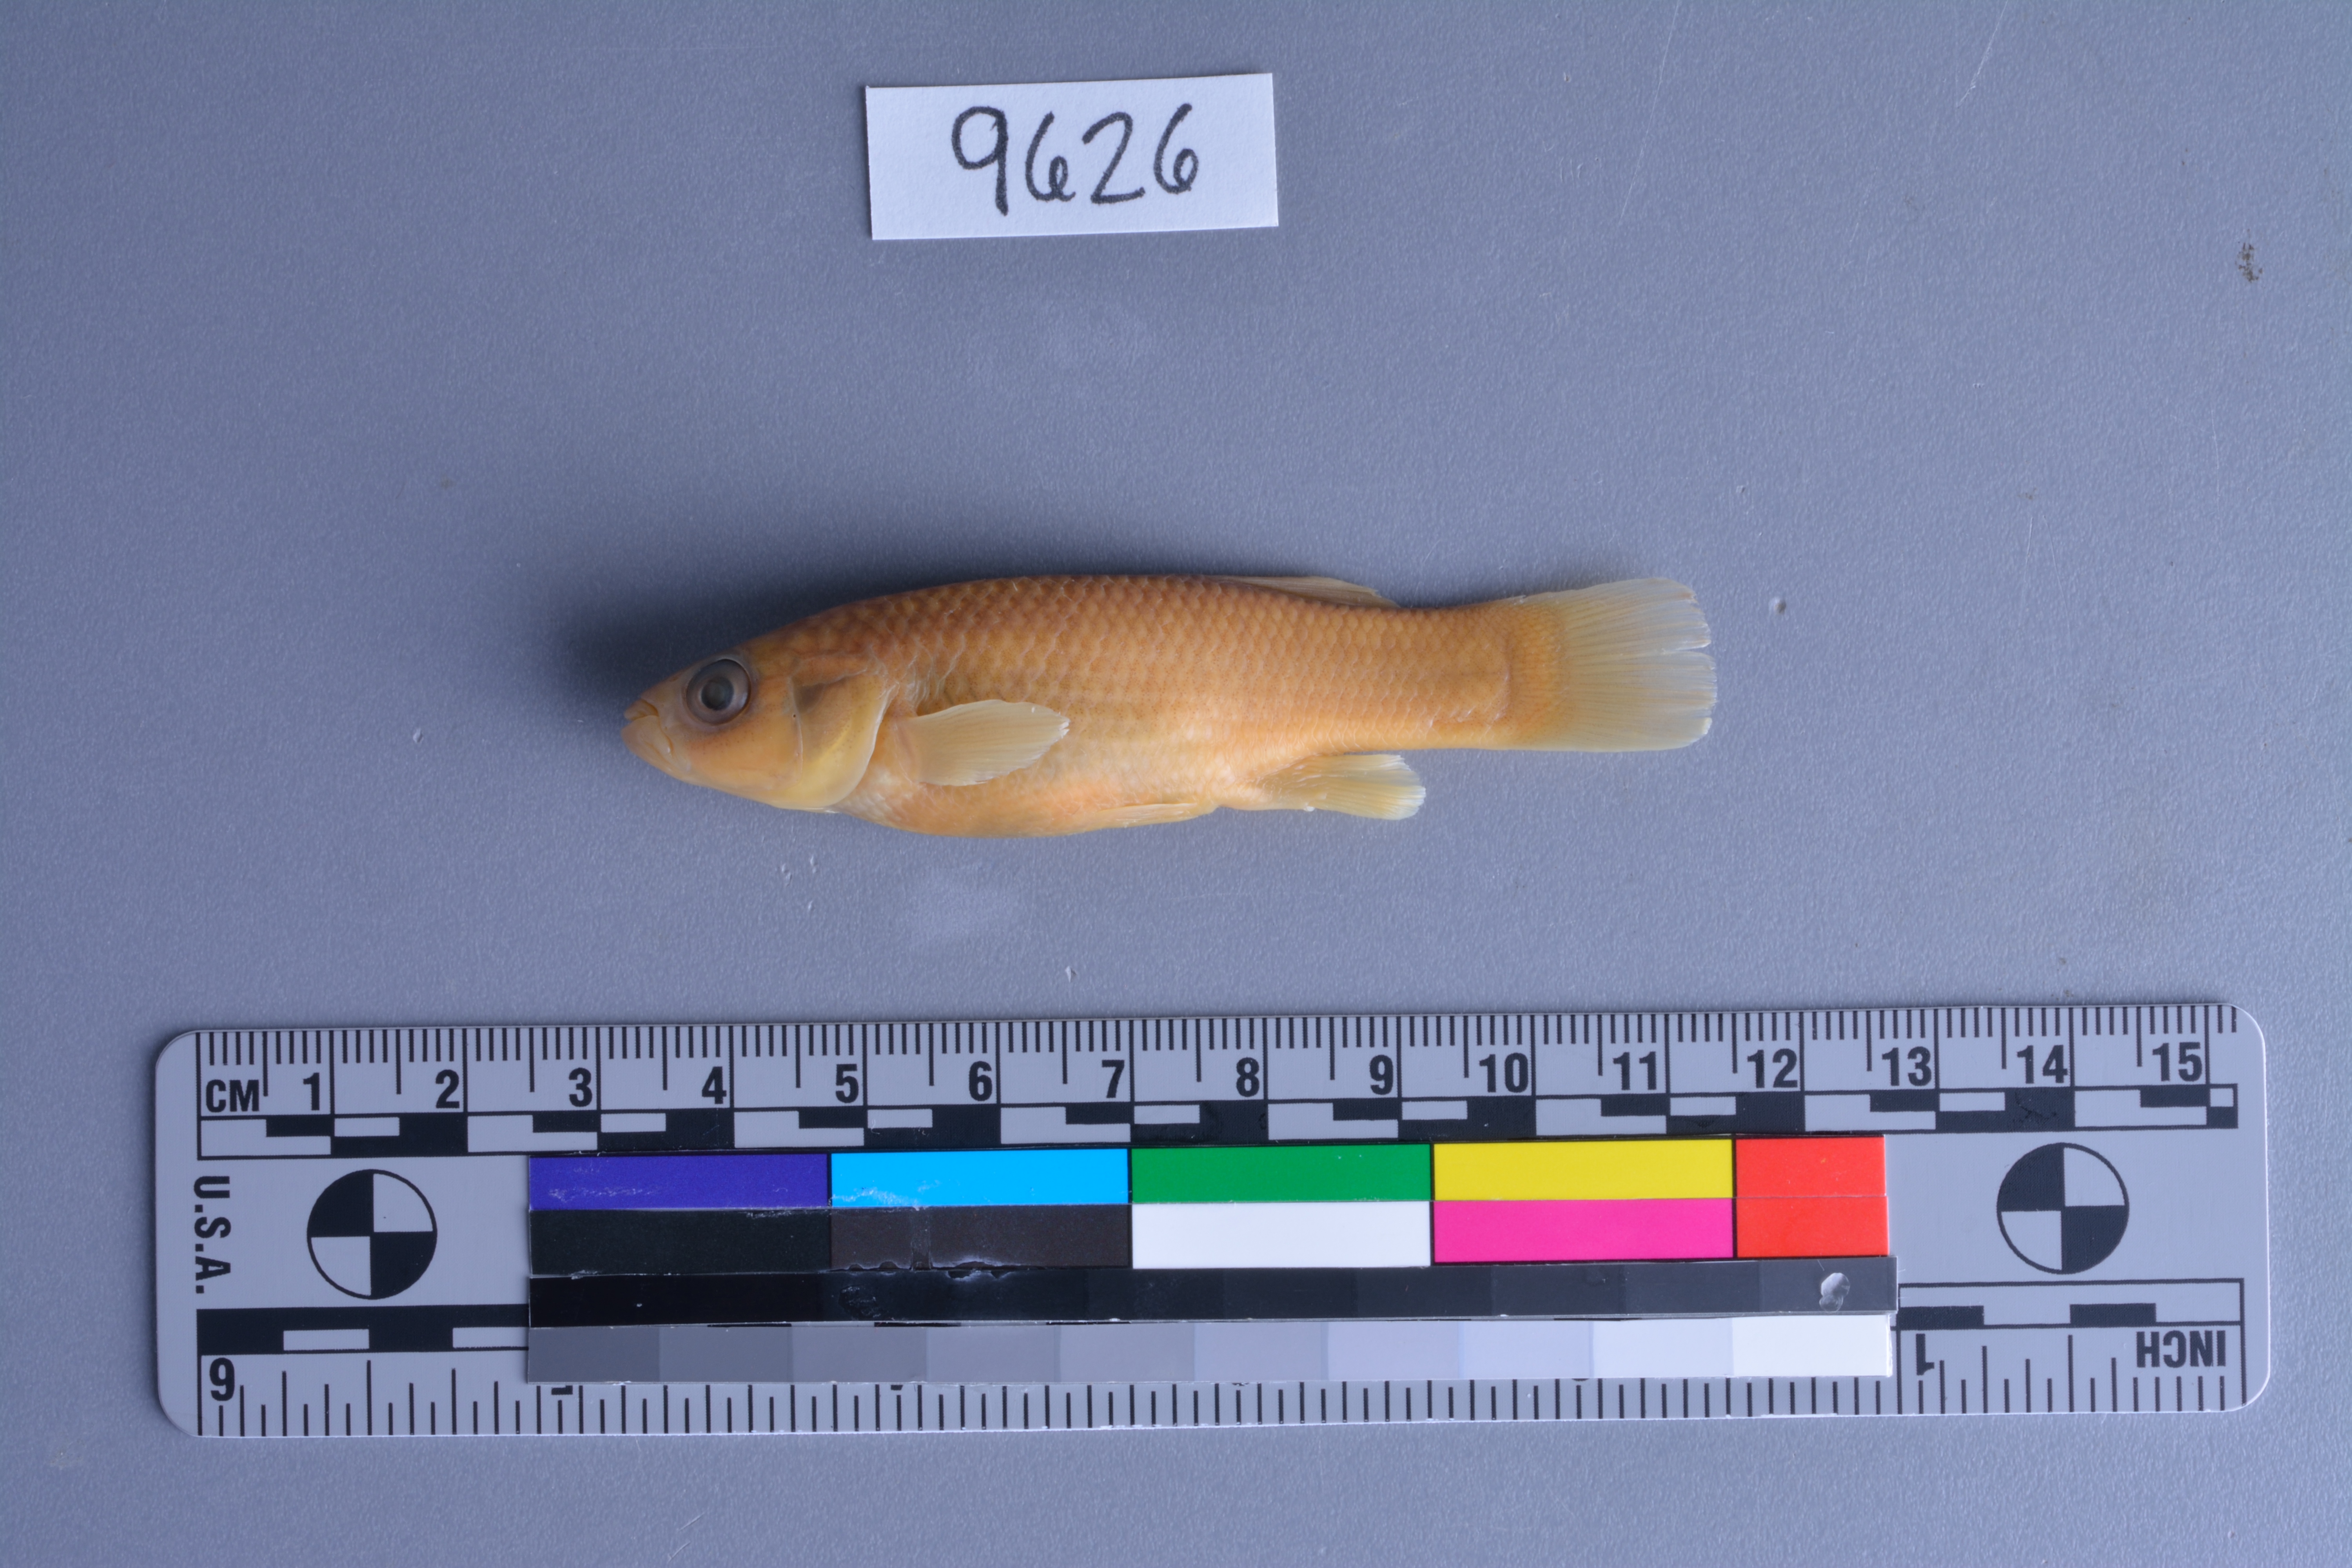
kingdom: Animalia
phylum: Chordata
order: Cyprinodontiformes
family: Fundulidae
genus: Fundulus
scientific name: Fundulus grandis
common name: Gulf killifish
